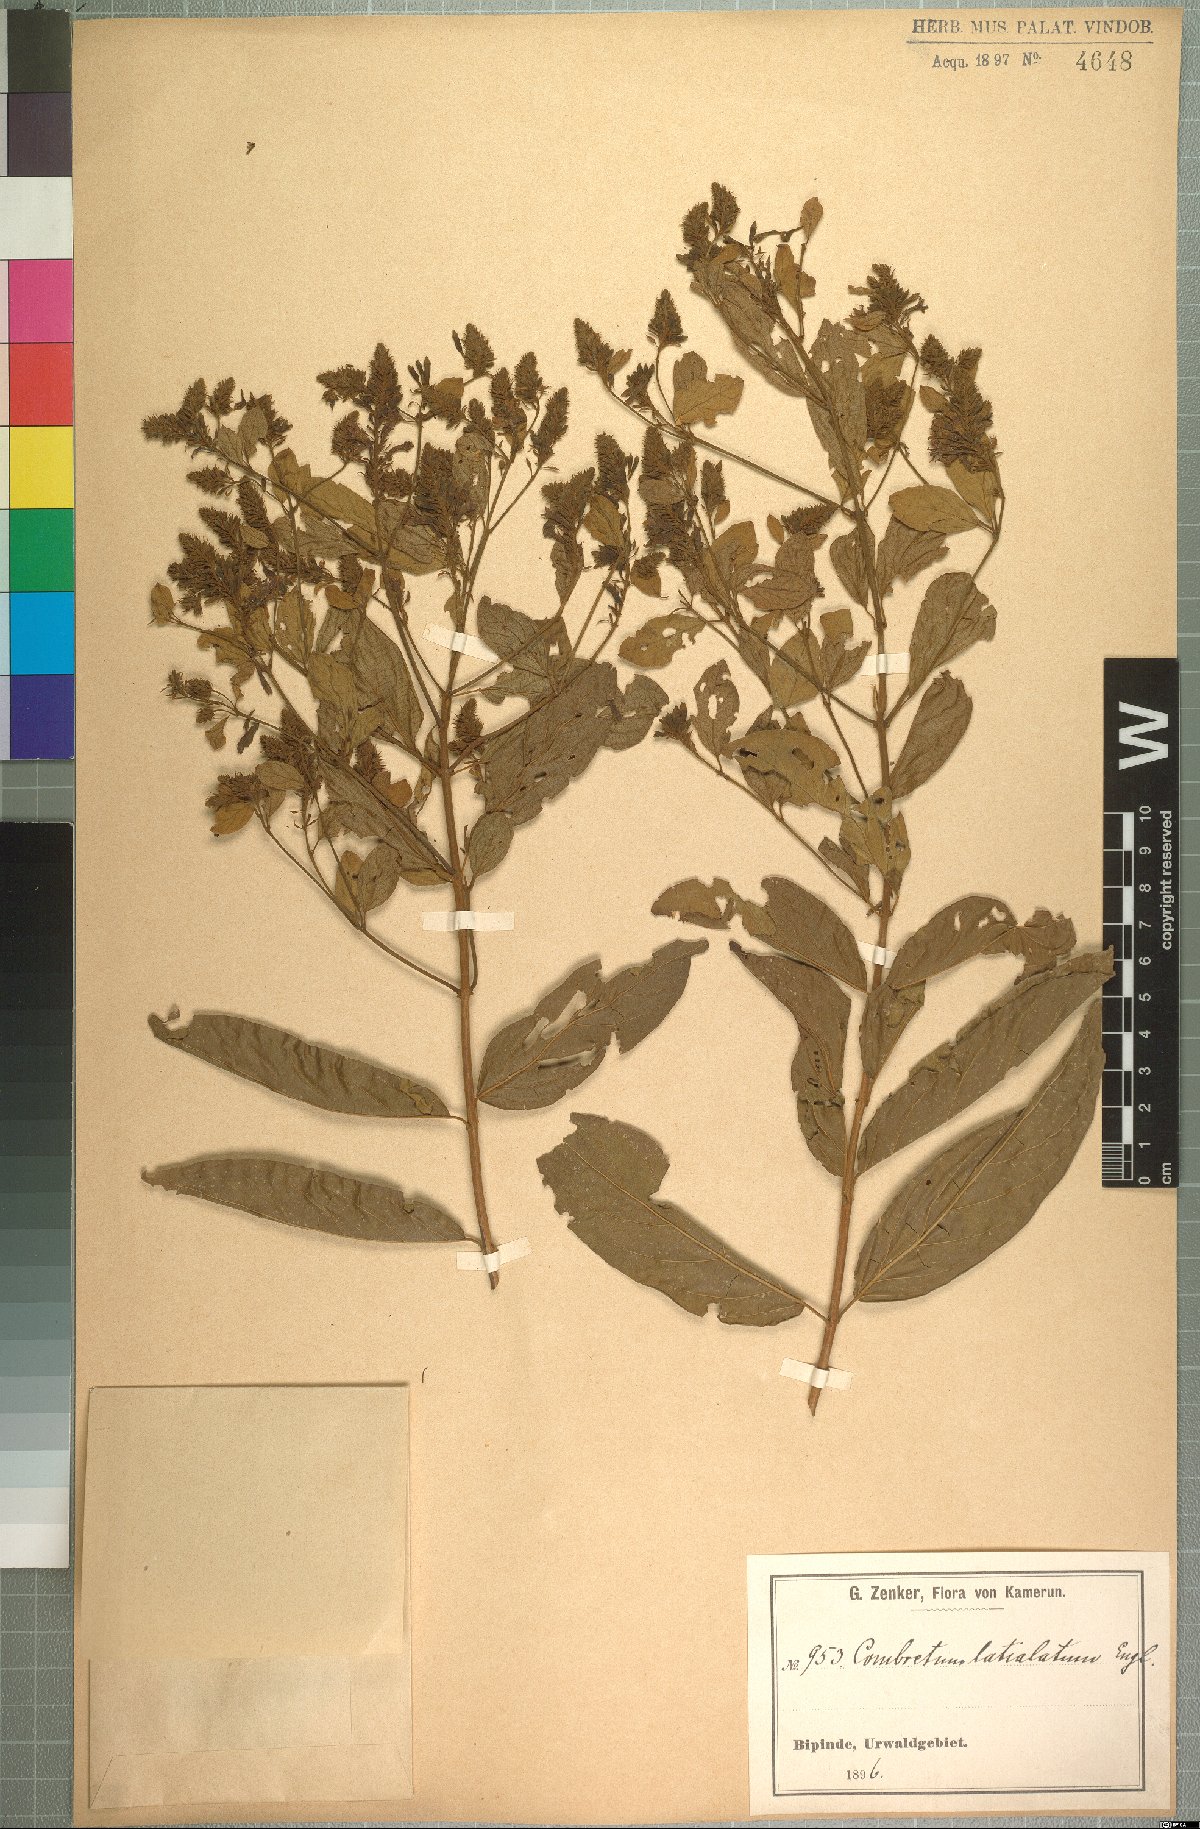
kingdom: Plantae
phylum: Tracheophyta
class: Magnoliopsida
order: Myrtales
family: Combretaceae
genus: Combretum
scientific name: Combretum latialatum
